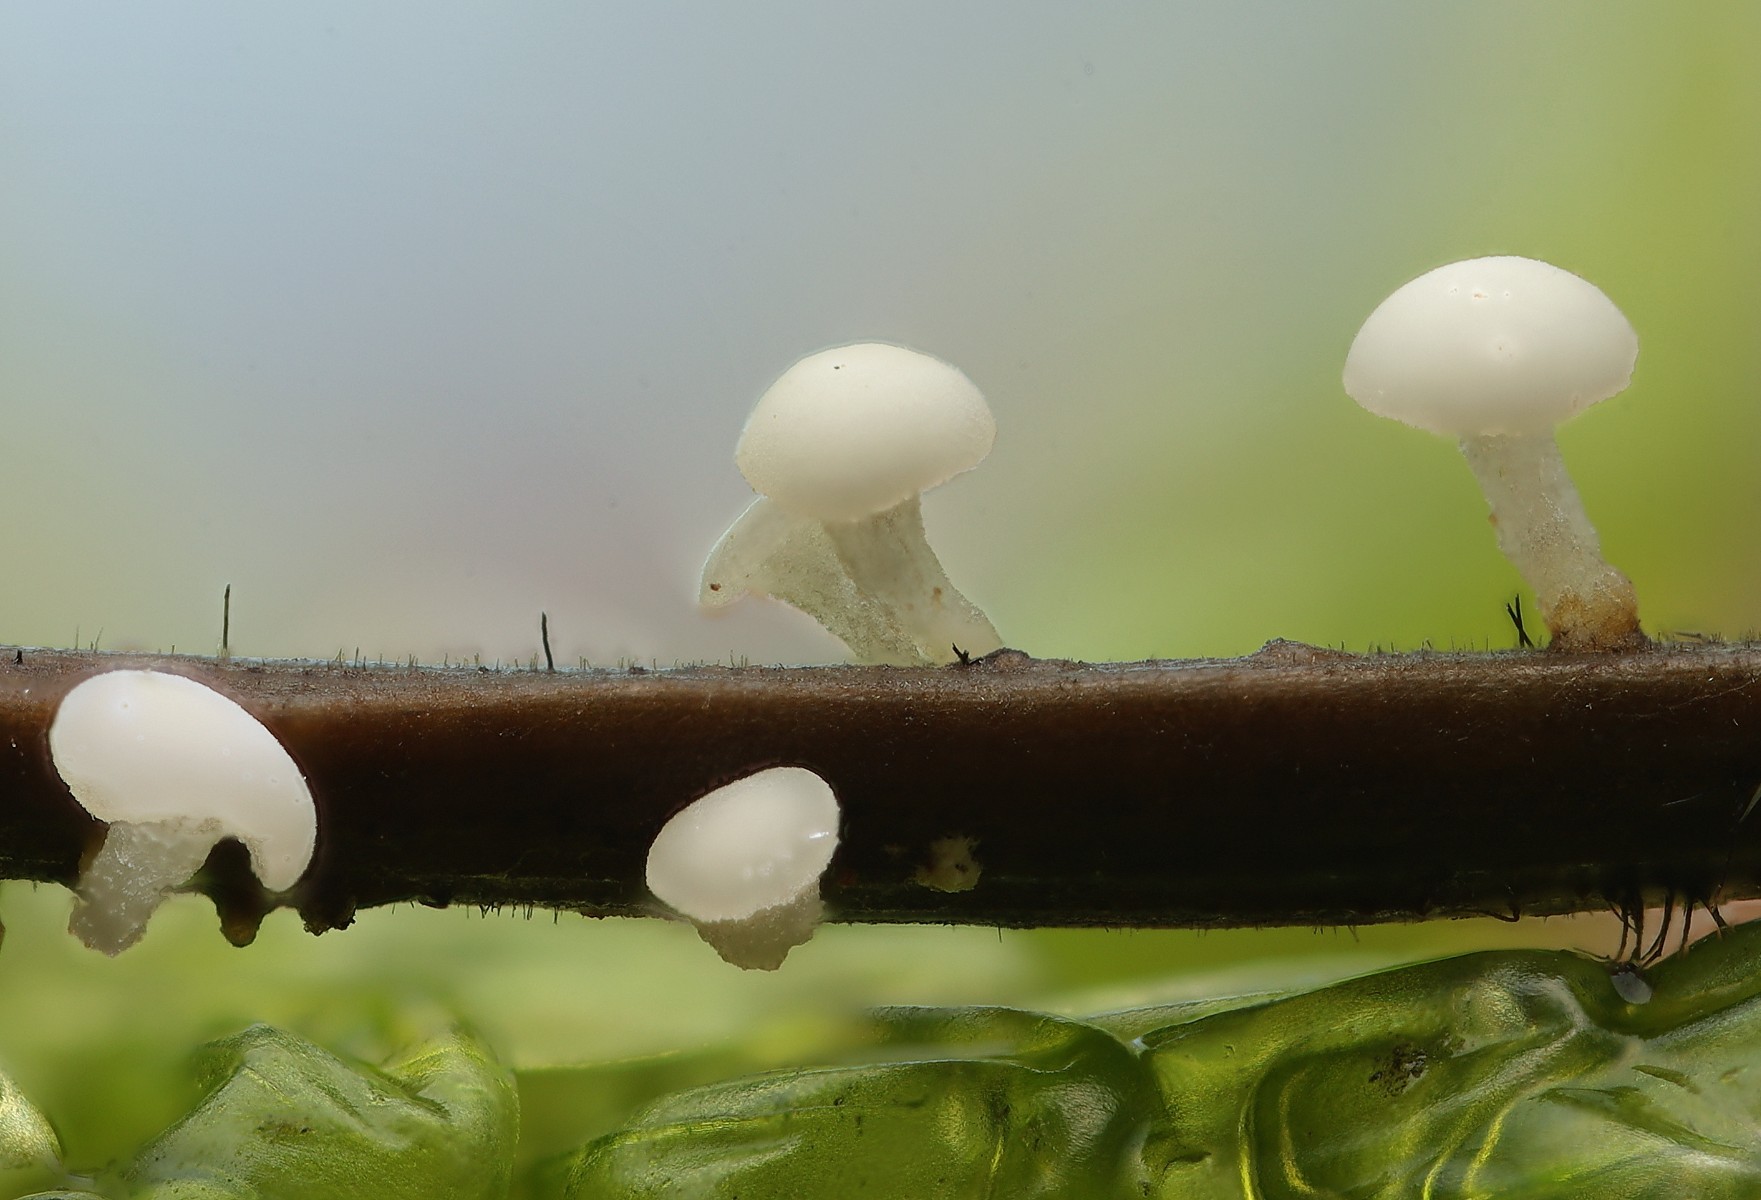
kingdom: Fungi
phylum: Ascomycota
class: Leotiomycetes
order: Helotiales
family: Pezizellaceae
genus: Calycina
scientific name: Calycina subtilis
